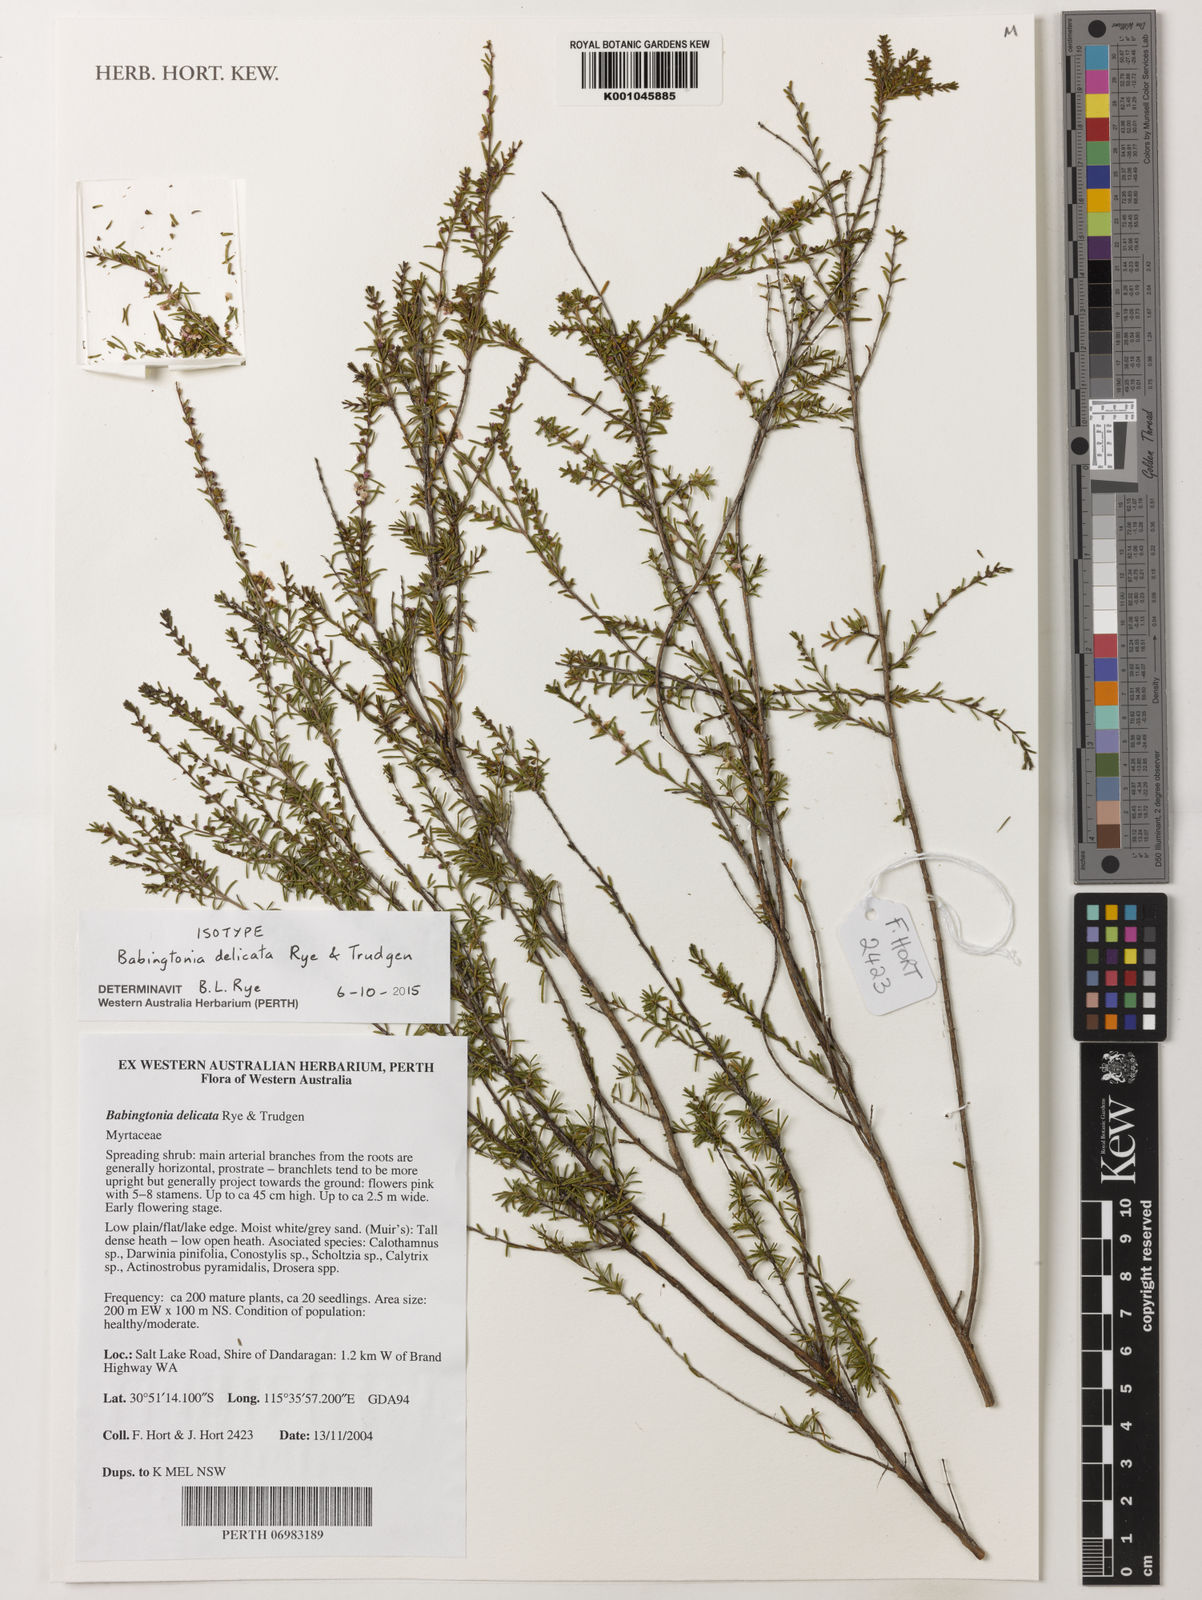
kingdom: Plantae
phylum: Tracheophyta
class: Magnoliopsida
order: Myrtales
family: Myrtaceae
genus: Babingtonia
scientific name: Babingtonia
